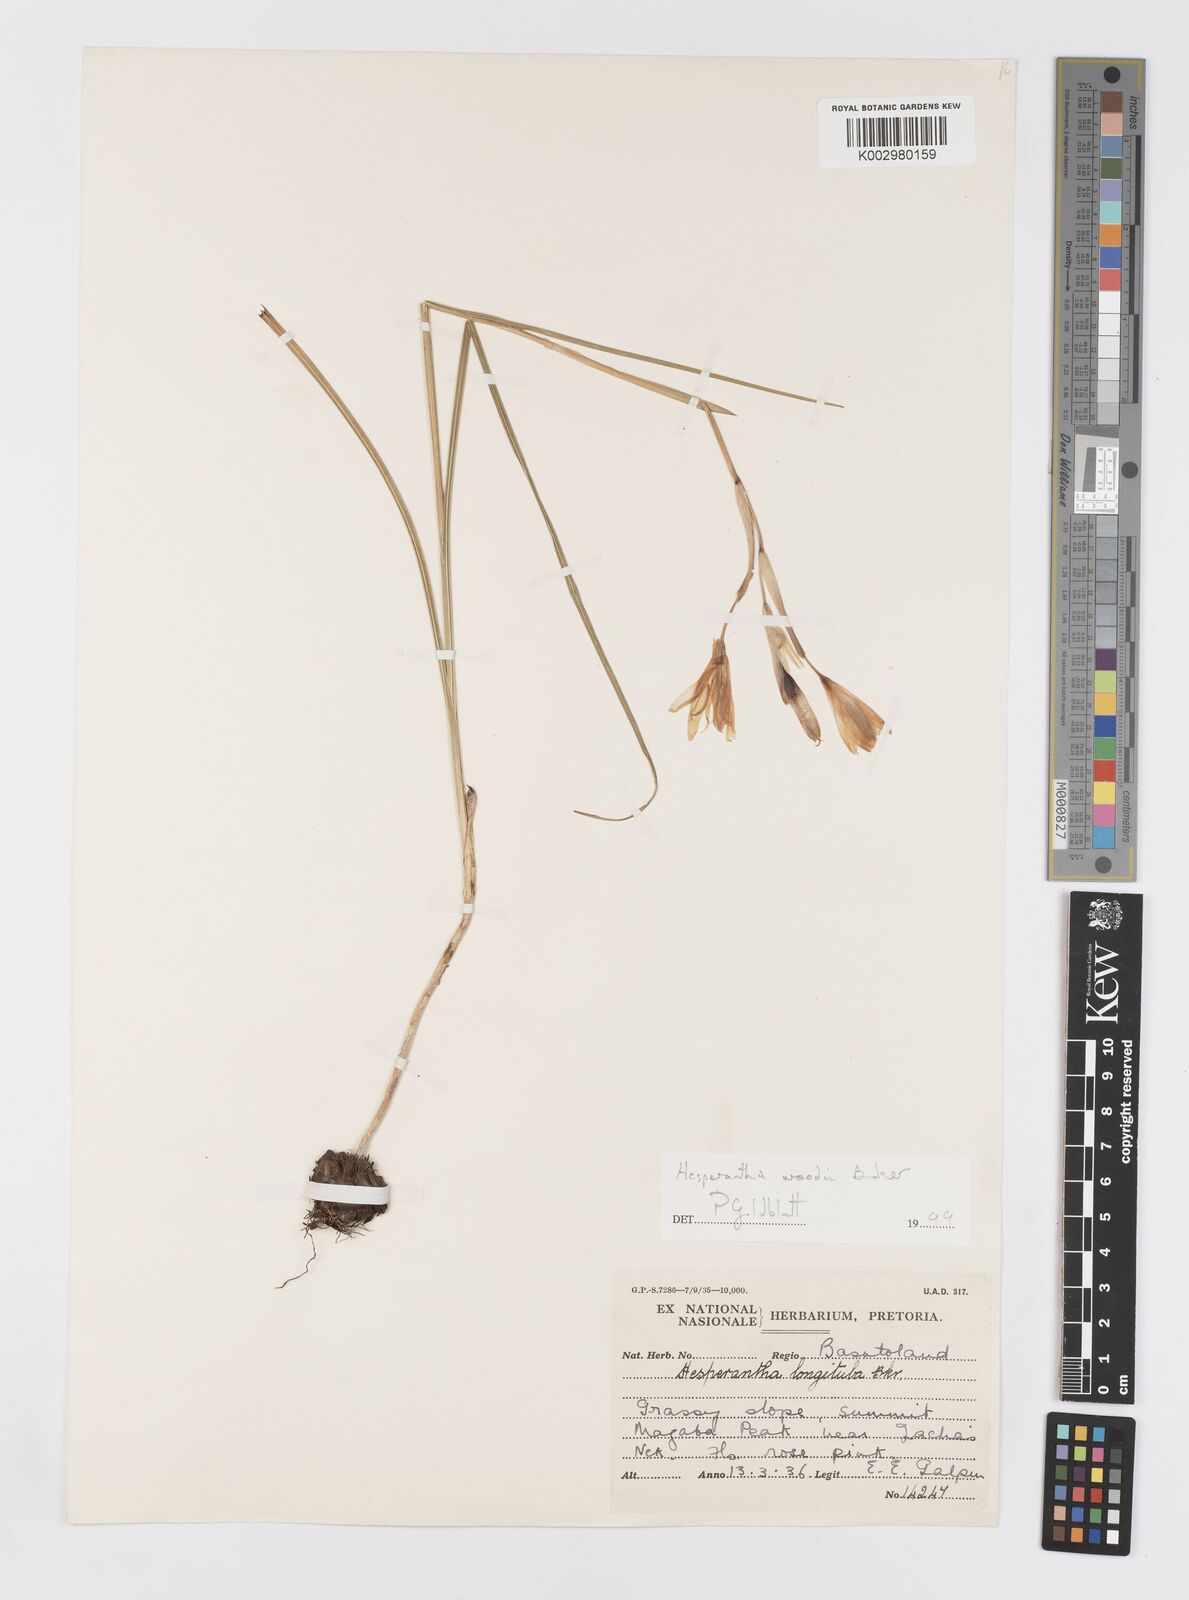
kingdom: Plantae
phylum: Tracheophyta
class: Liliopsida
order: Asparagales
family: Iridaceae
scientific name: Iridaceae
